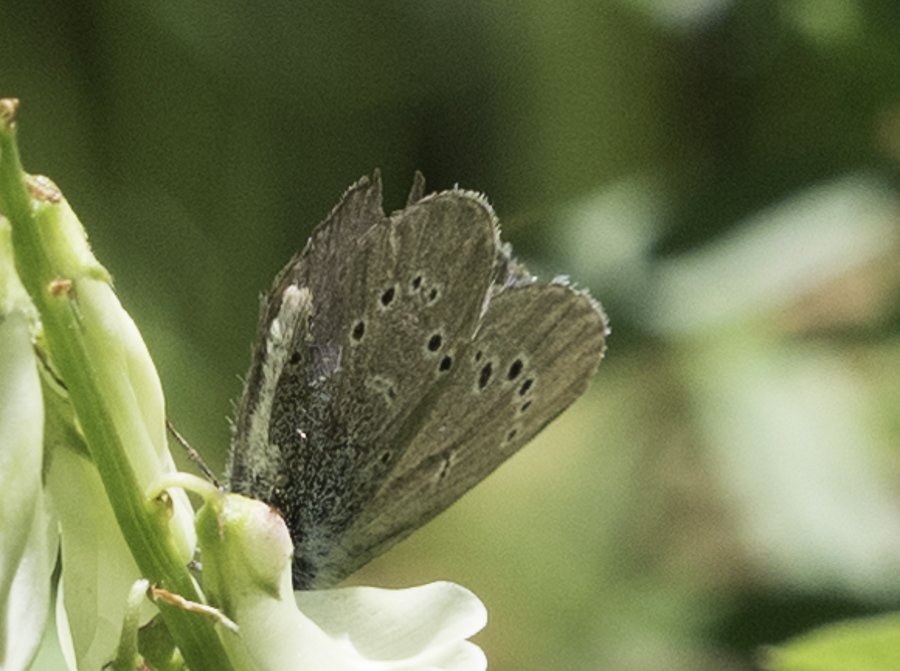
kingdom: Animalia
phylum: Arthropoda
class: Insecta
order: Lepidoptera
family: Lycaenidae
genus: Glaucopsyche
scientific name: Glaucopsyche lygdamus
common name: Silvery Blue
